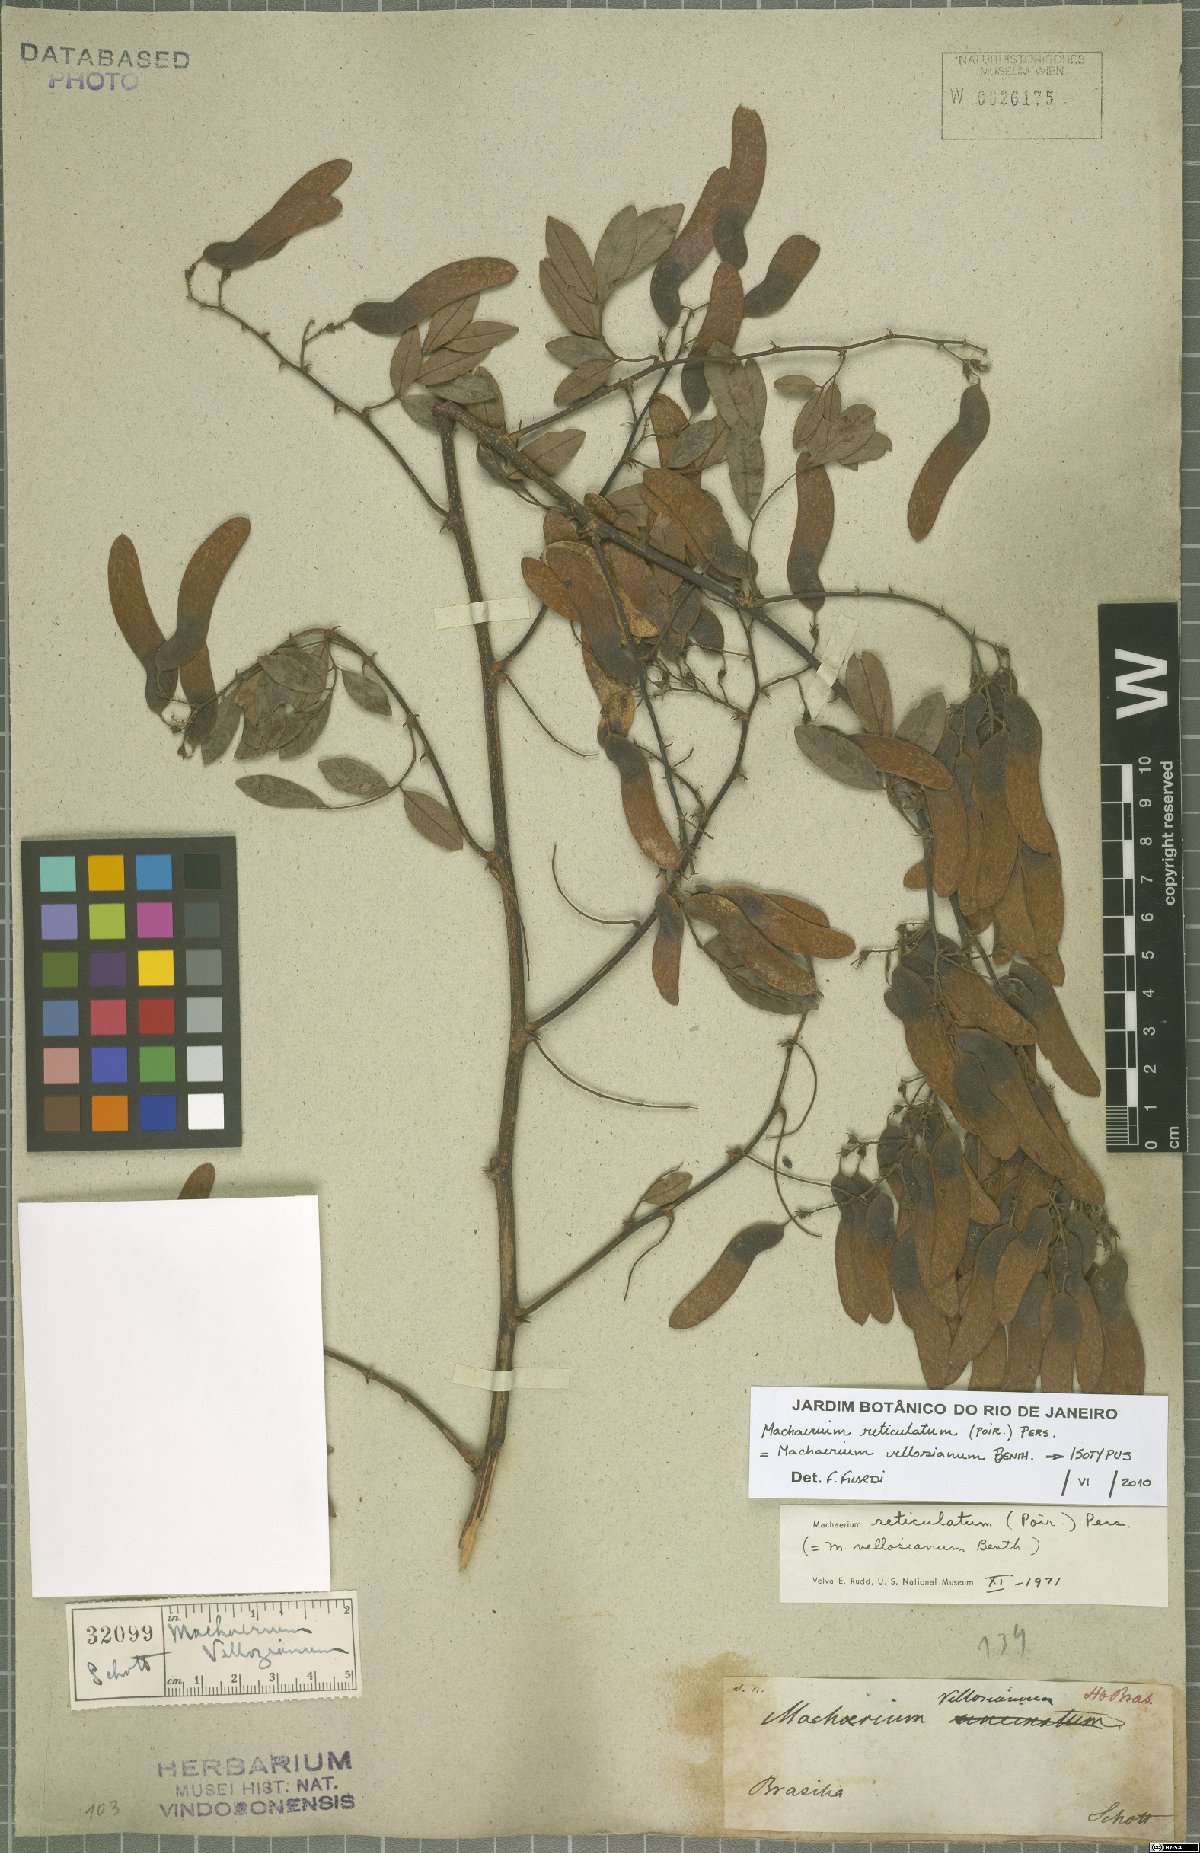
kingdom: Plantae
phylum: Tracheophyta
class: Magnoliopsida
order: Fabales
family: Fabaceae
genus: Machaerium
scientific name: Machaerium reticulatum
